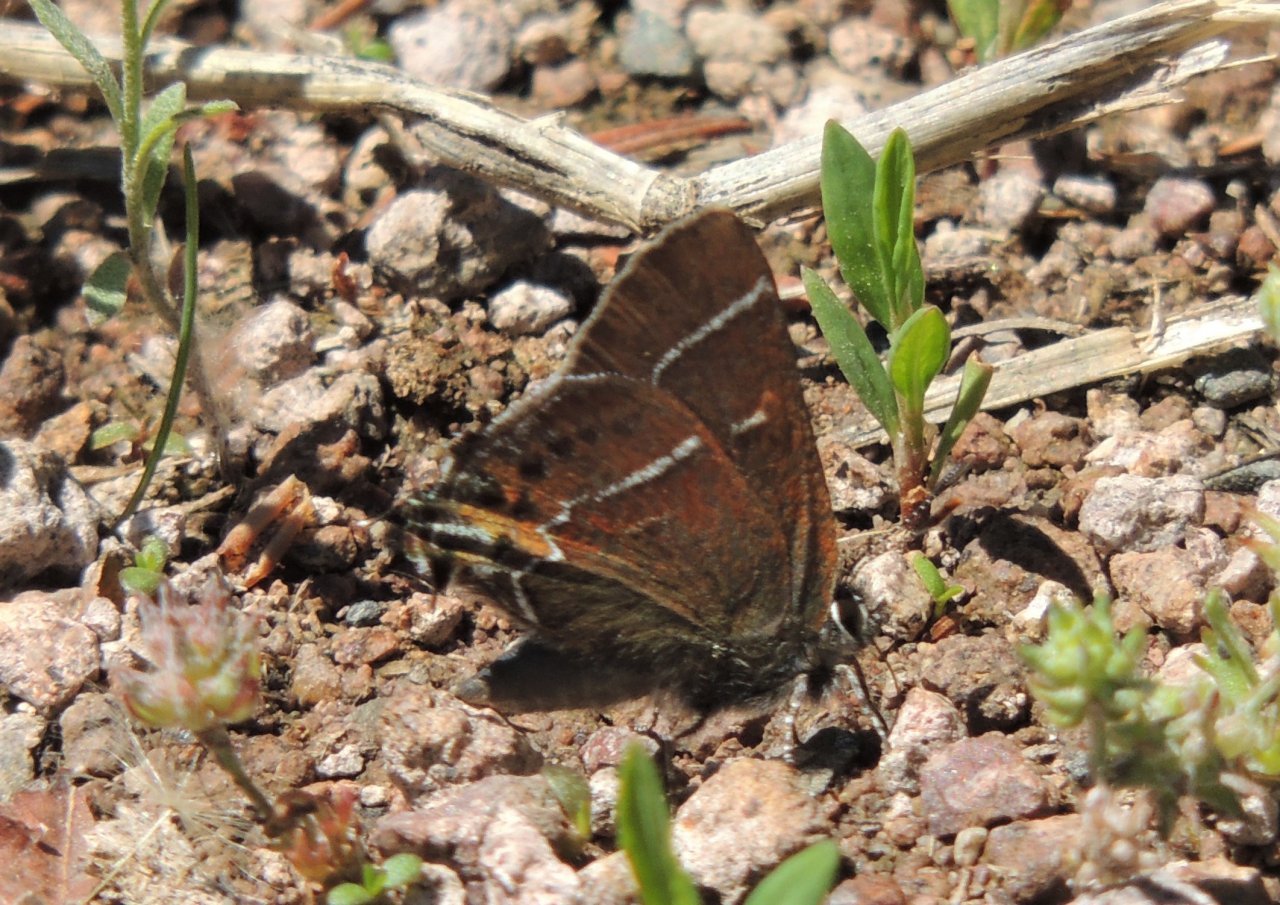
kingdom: Animalia
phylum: Arthropoda
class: Insecta
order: Lepidoptera
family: Lycaenidae
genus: Mitoura
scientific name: Mitoura spinetorum
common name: Thicket Hairstreak
